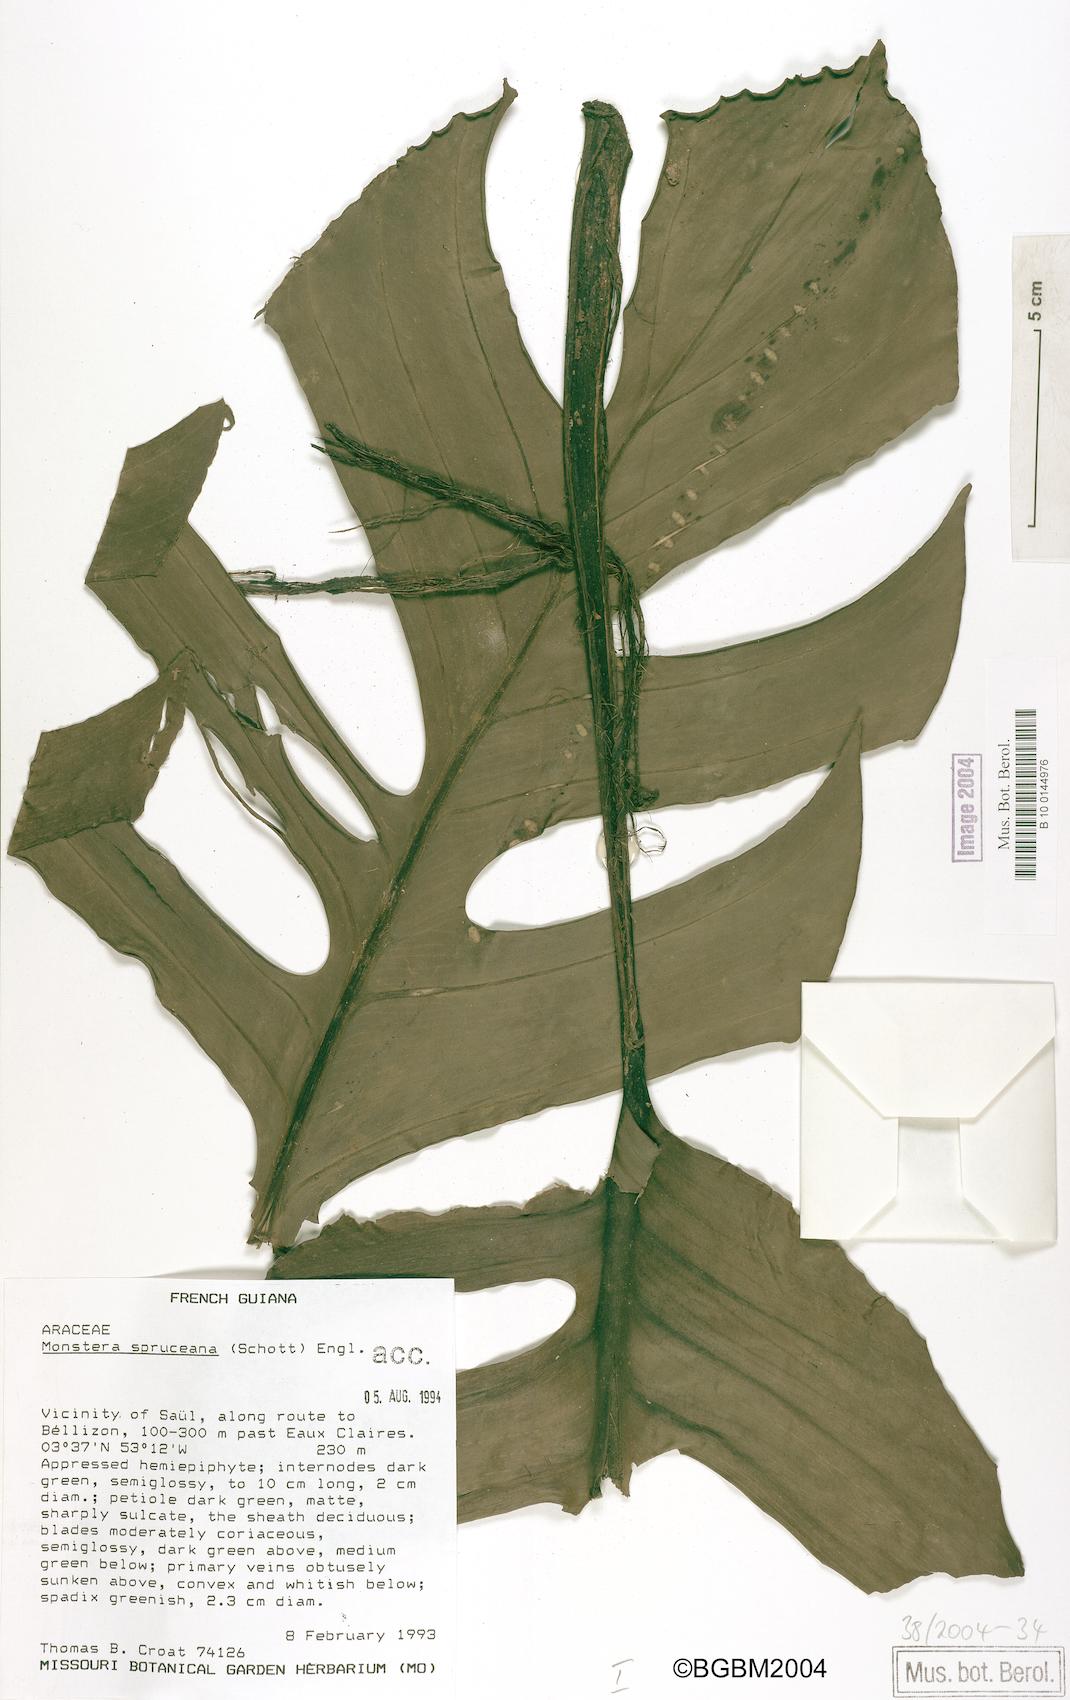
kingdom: Plantae
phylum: Tracheophyta
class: Liliopsida
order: Alismatales
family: Araceae
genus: Monstera
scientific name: Monstera spruceana
